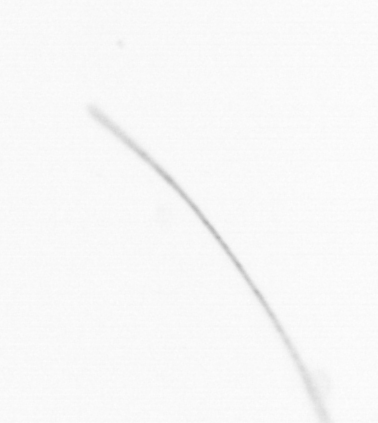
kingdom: Chromista
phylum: Ochrophyta
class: Bacillariophyceae
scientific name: Bacillariophyceae
